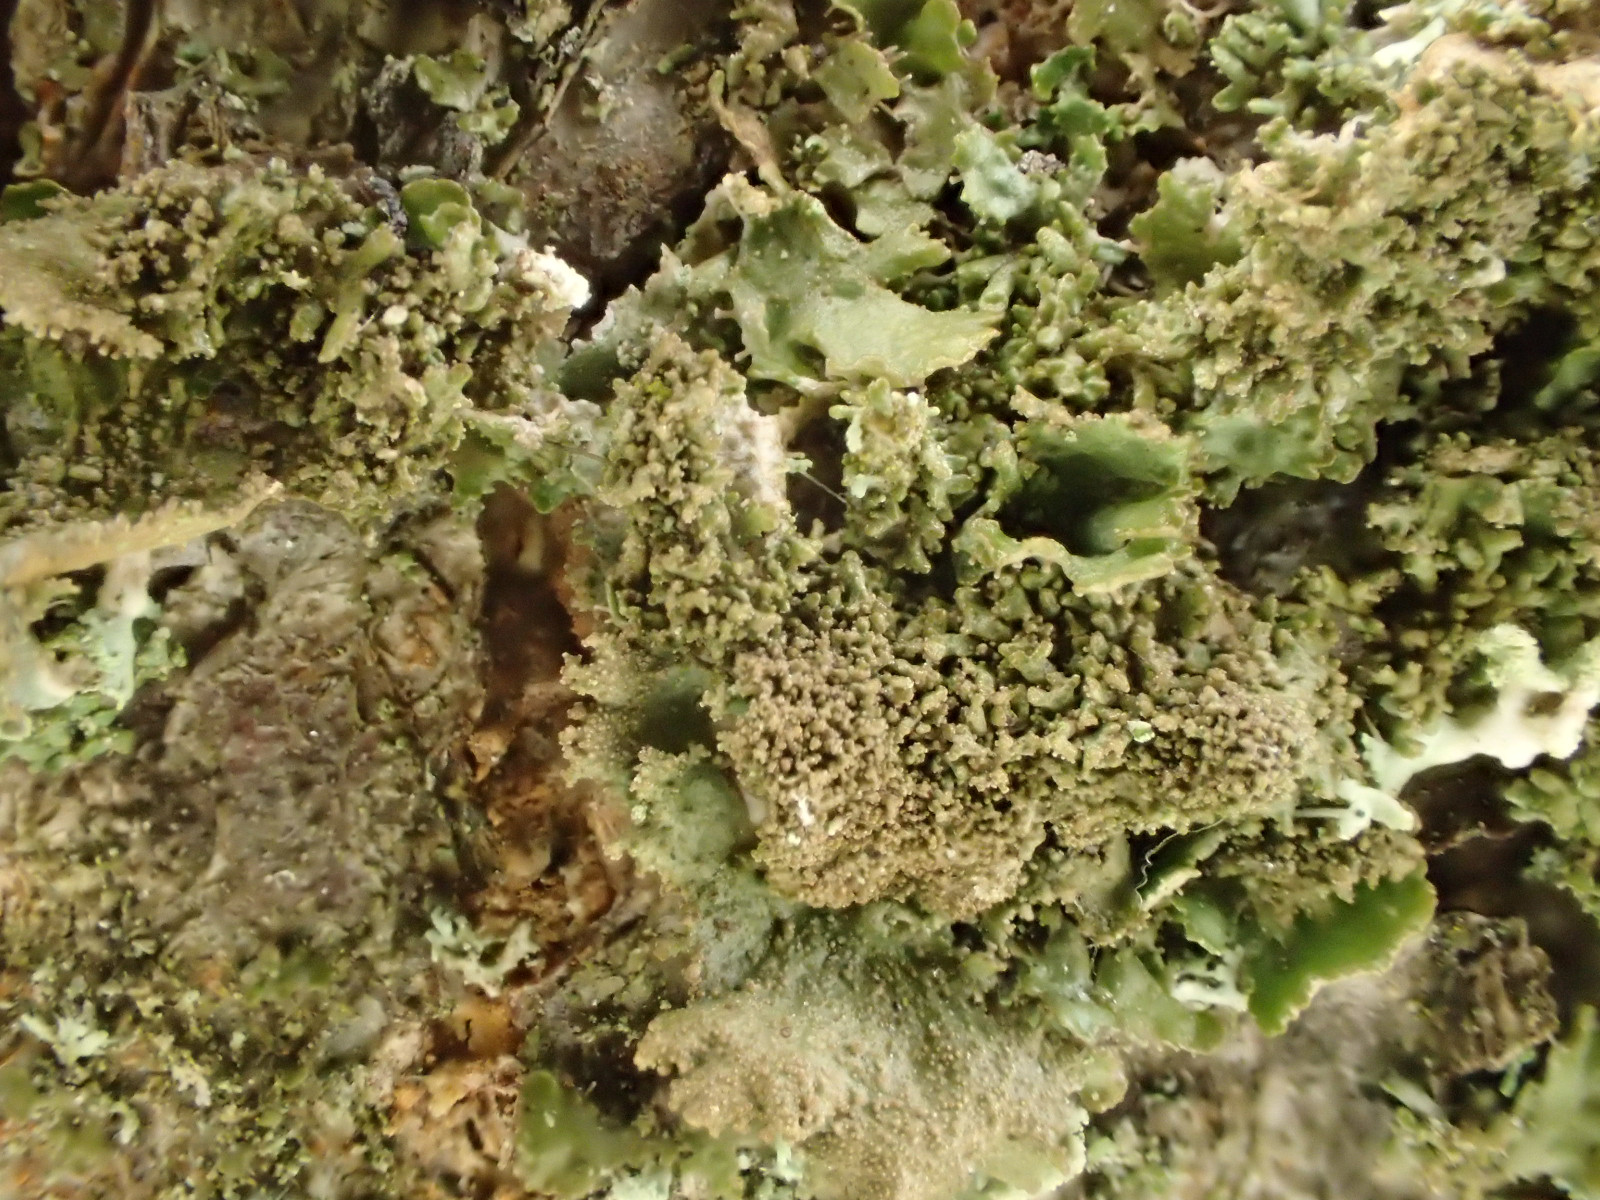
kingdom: Fungi
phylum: Ascomycota
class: Lecanoromycetes
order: Lecanorales
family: Parmeliaceae
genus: Melanohalea
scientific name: Melanohalea exasperatula
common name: kølle-skållav
